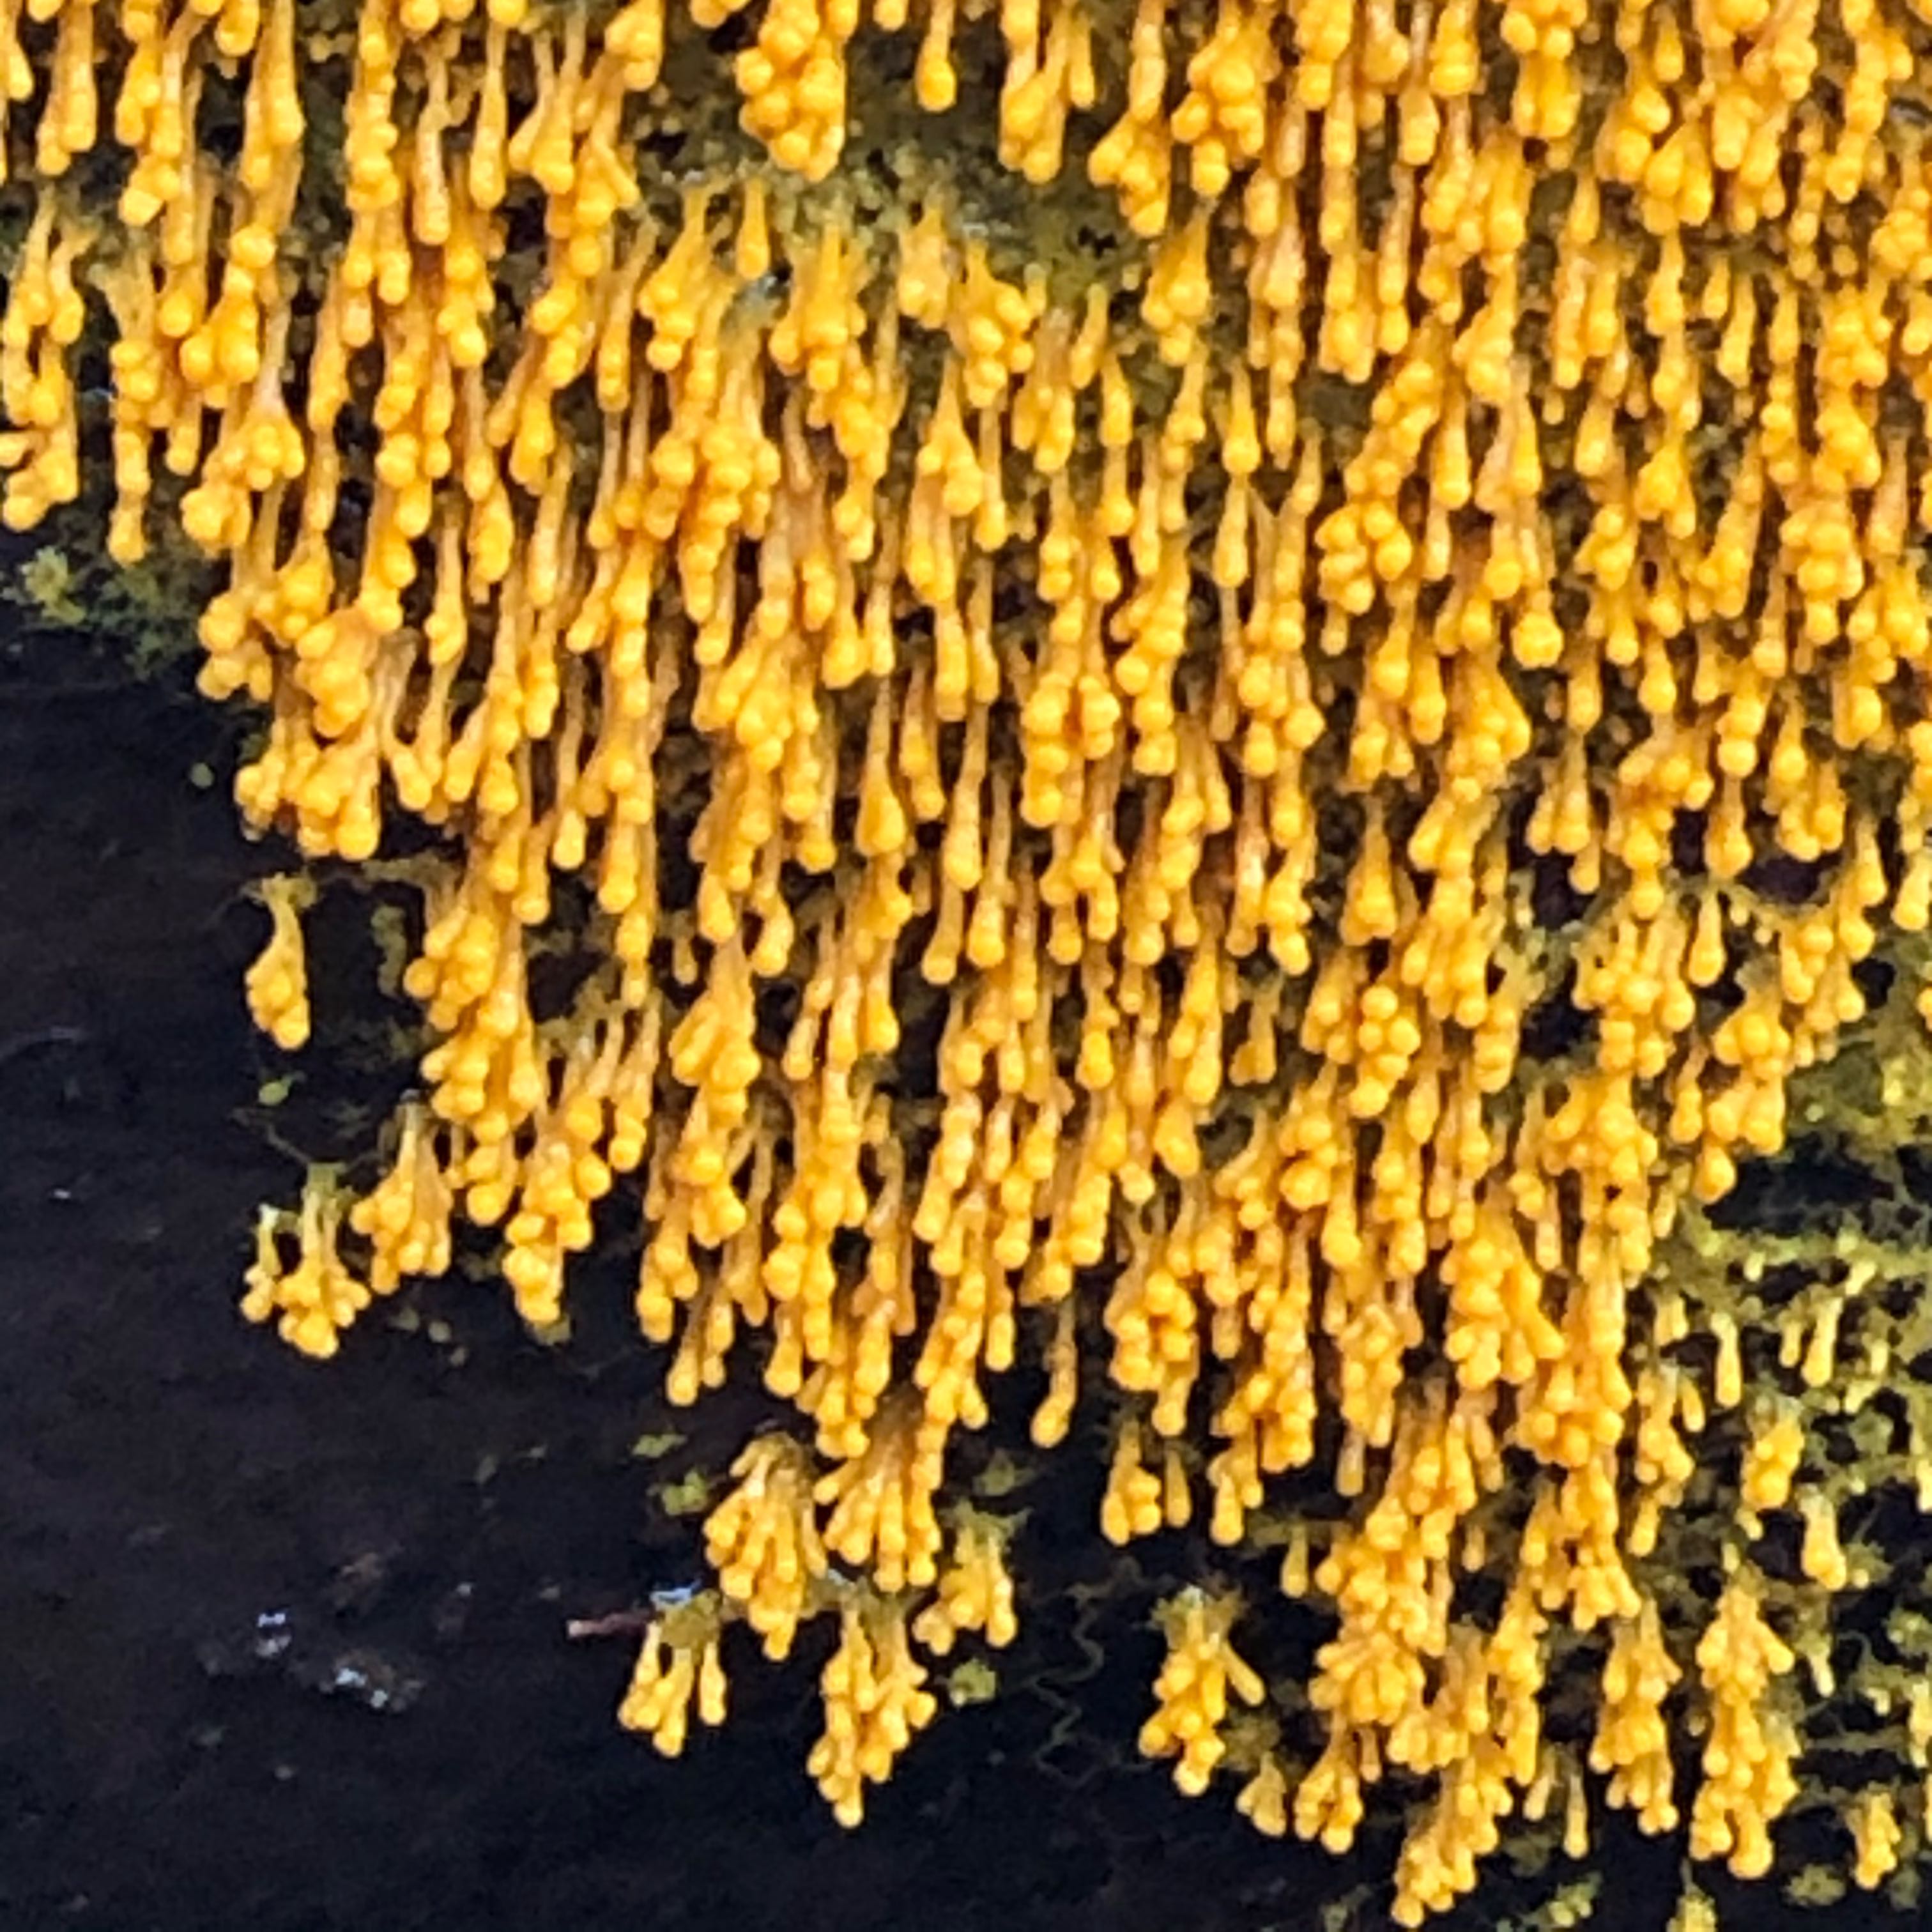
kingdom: Protozoa
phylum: Mycetozoa
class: Myxomycetes
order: Physarales
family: Physaraceae
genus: Badhamia
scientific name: Badhamia utricularis
